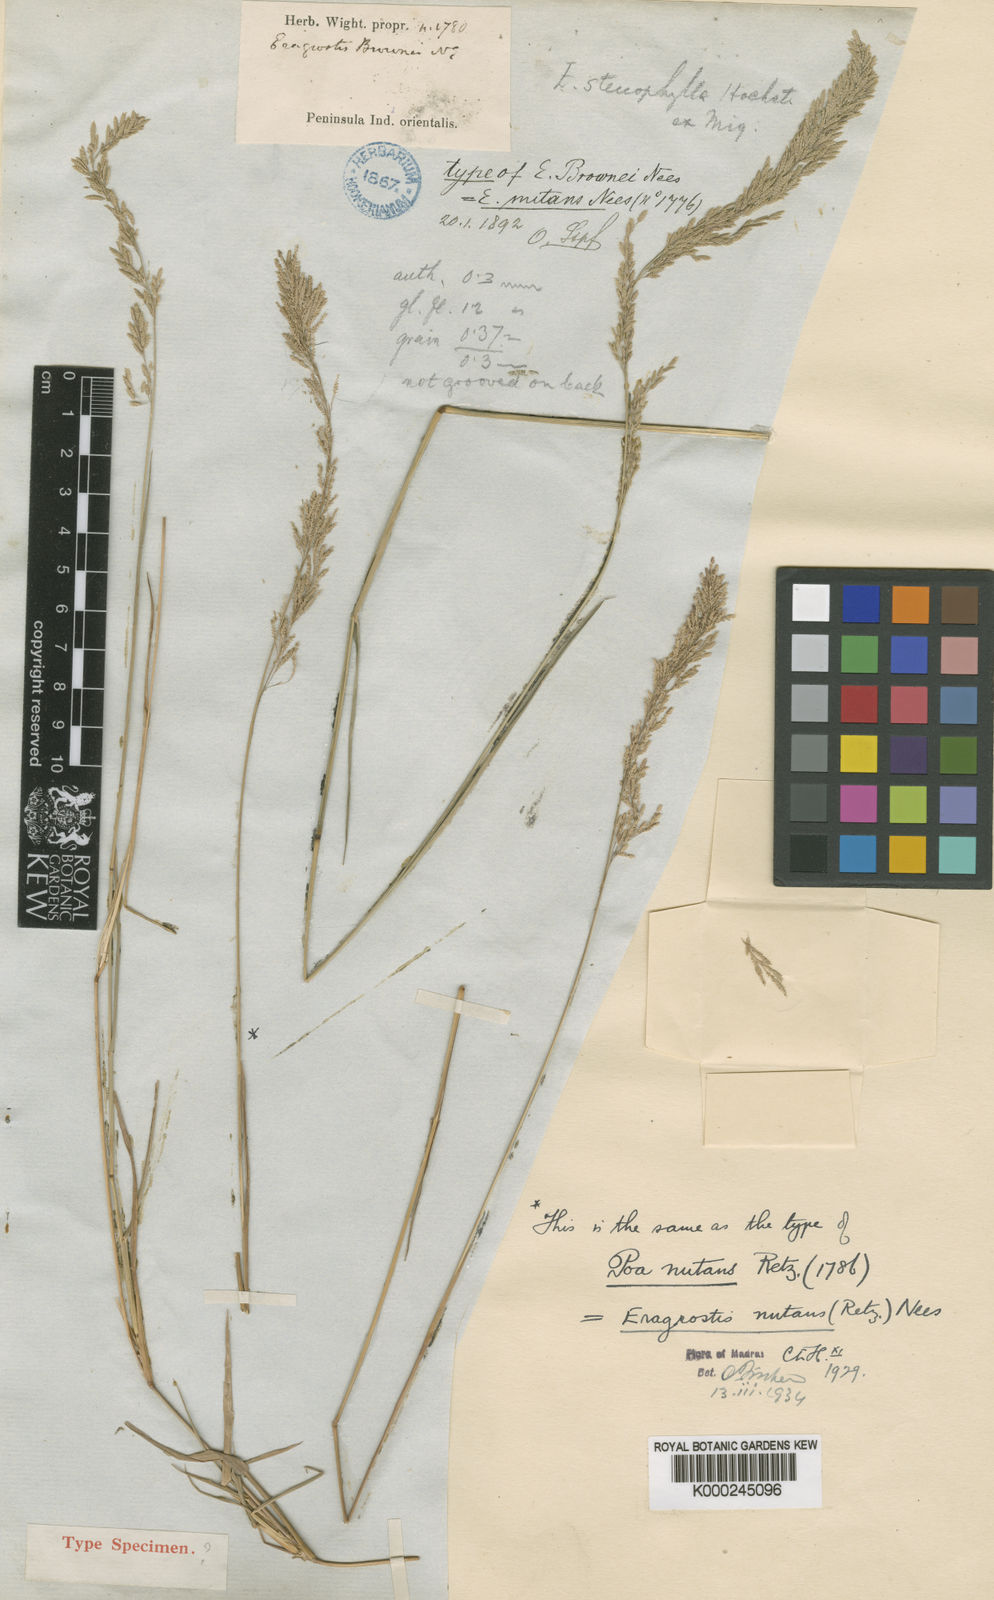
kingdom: Plantae
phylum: Tracheophyta
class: Liliopsida
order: Poales
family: Poaceae
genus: Eragrostis
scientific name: Eragrostis nutans
